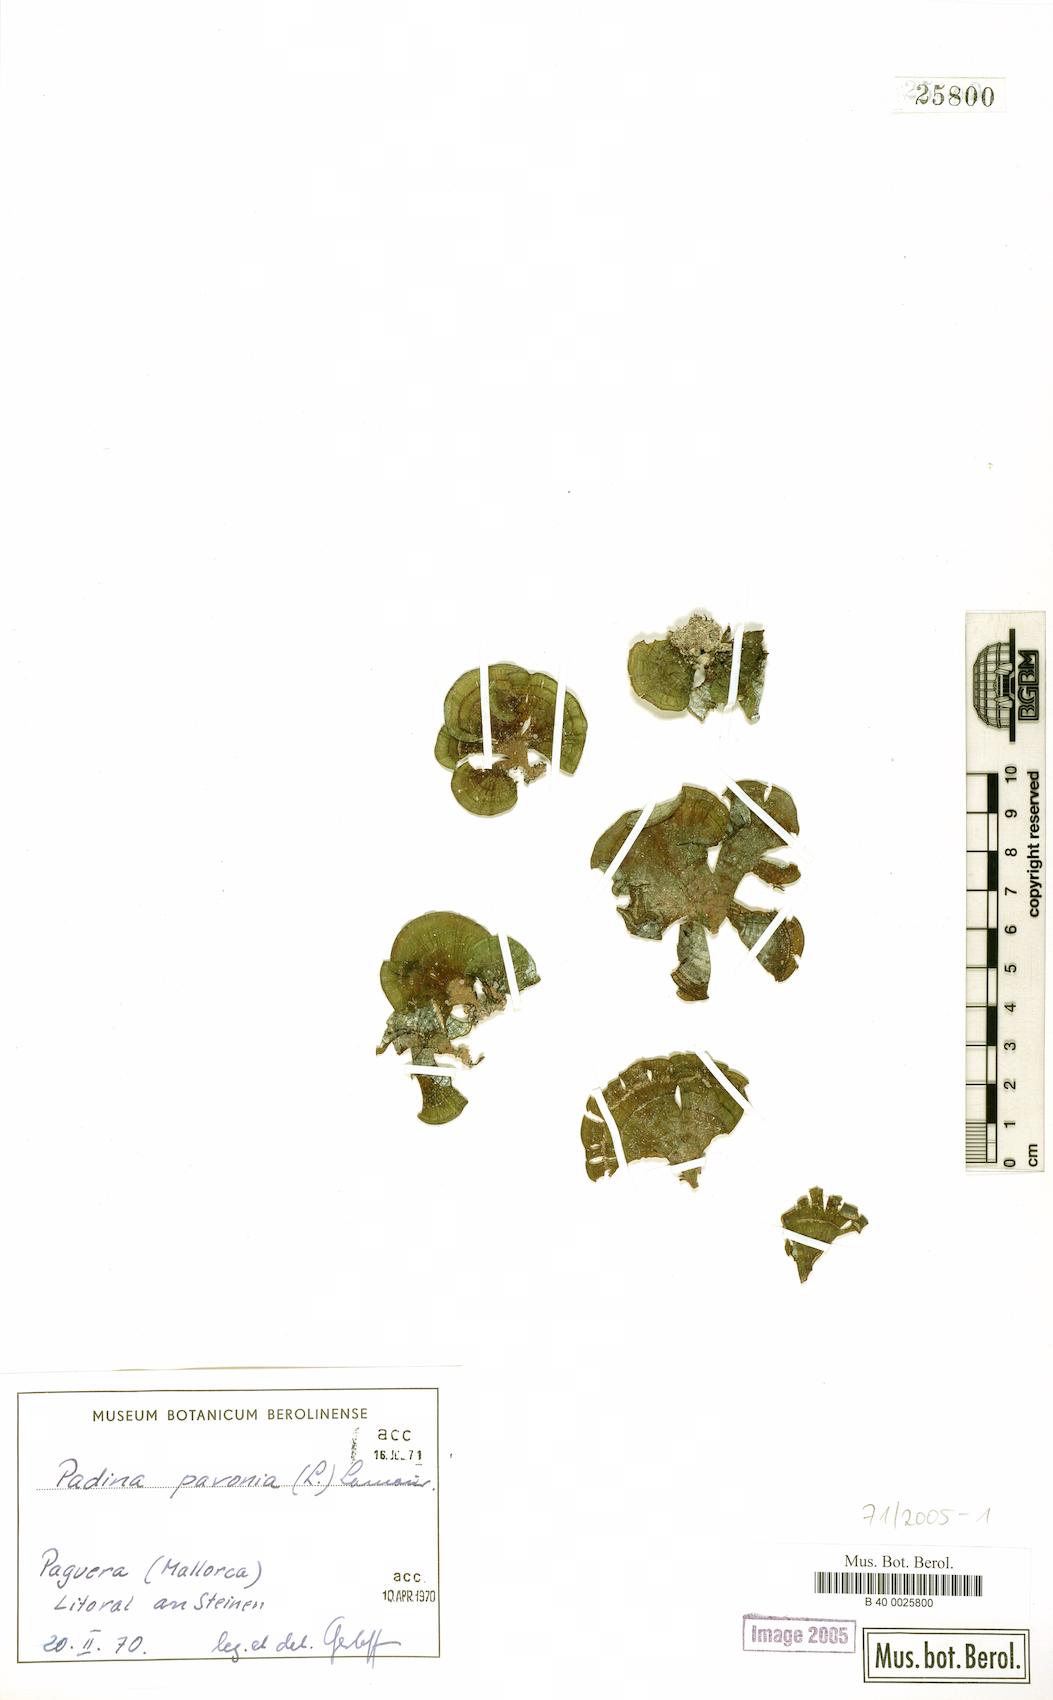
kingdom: Chromista
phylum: Ochrophyta
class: Phaeophyceae
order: Dictyotales
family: Dictyotaceae
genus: Padina
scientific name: Padina pavonica
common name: Turkey feather alga
